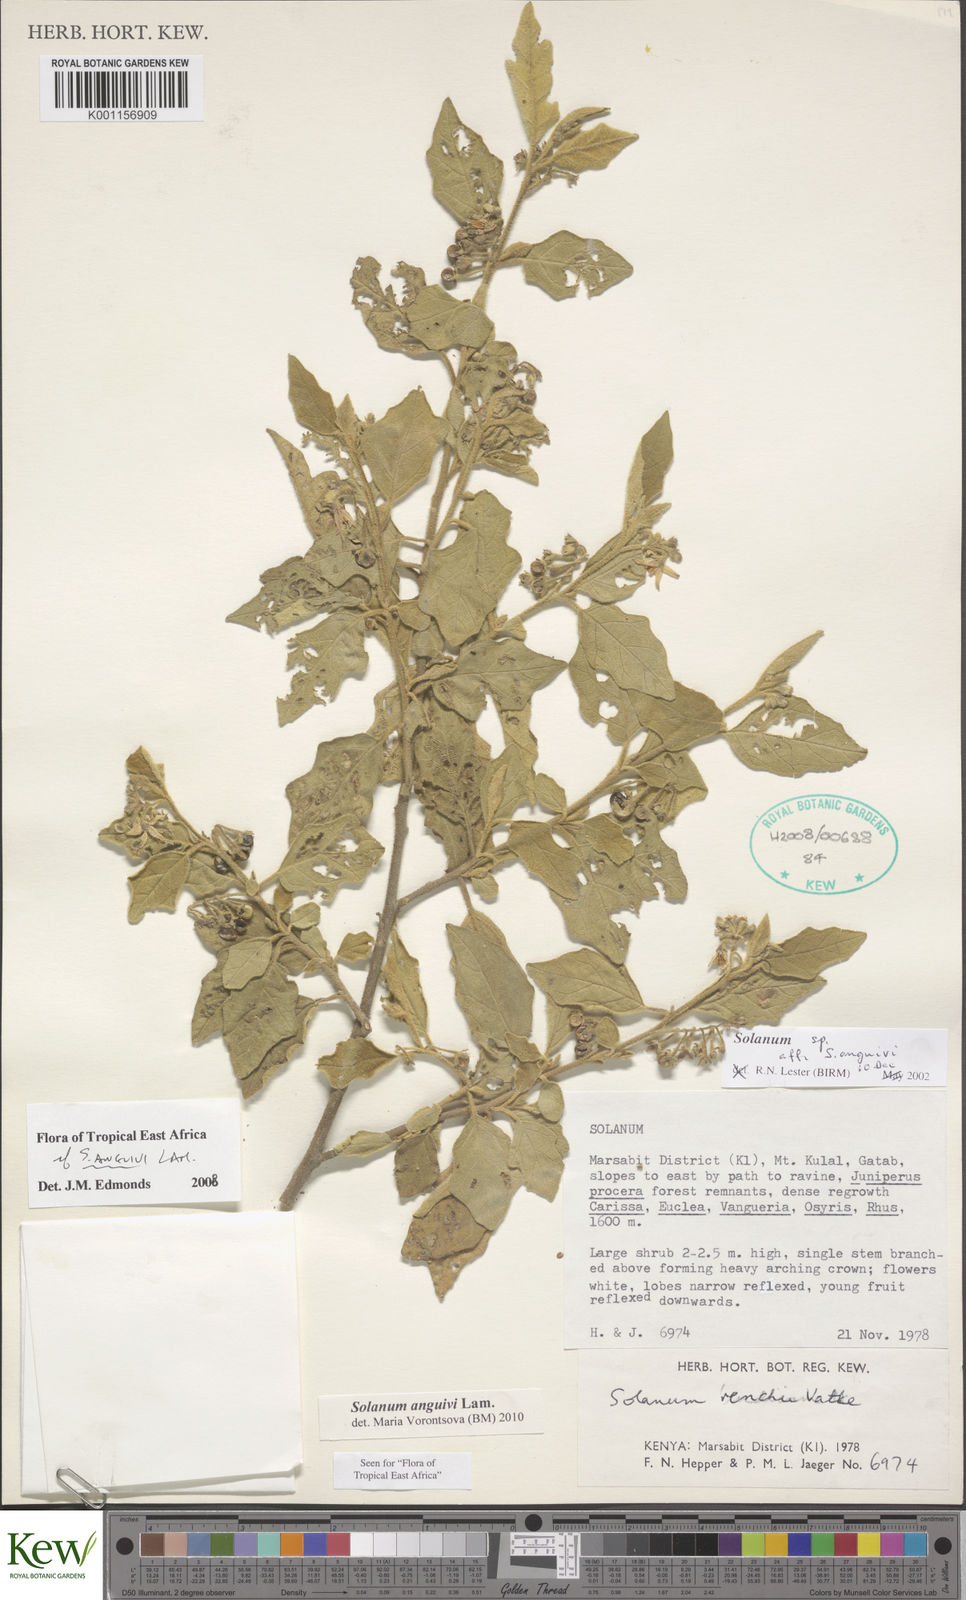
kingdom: Plantae
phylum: Tracheophyta
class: Magnoliopsida
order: Solanales
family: Solanaceae
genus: Solanum
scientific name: Solanum anguivi
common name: Forest bitterberry
